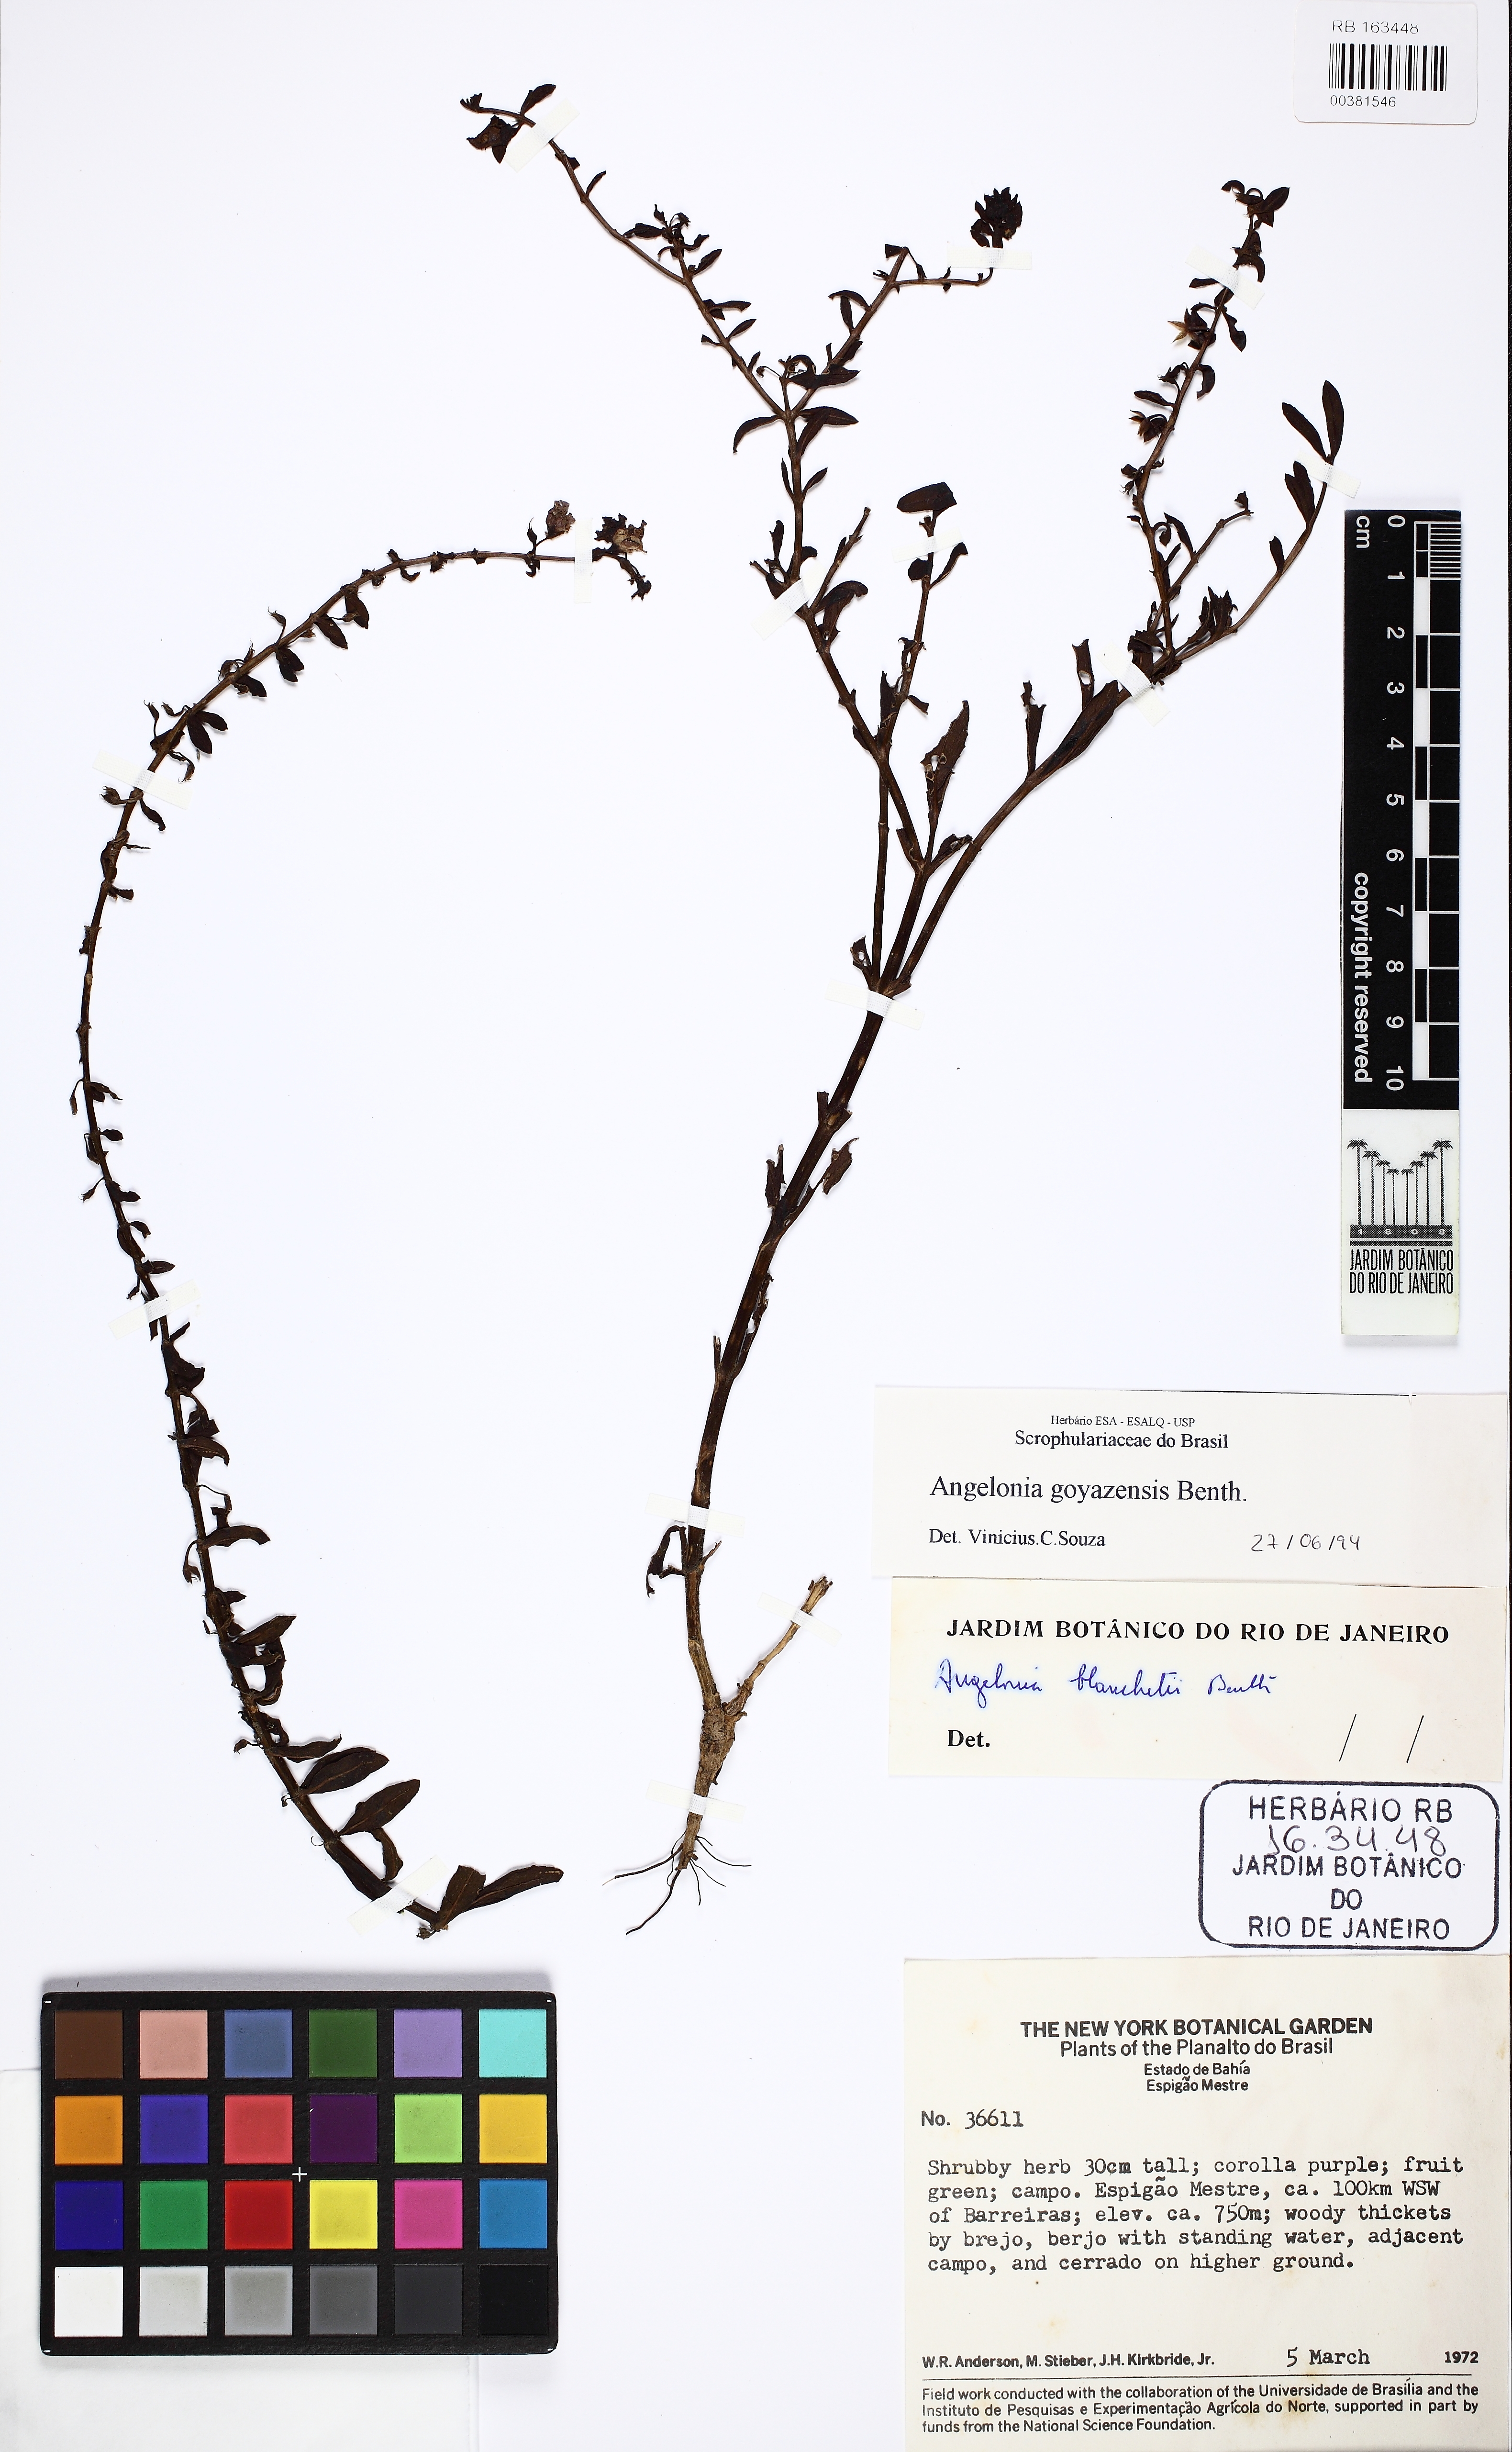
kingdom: Plantae
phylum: Tracheophyta
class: Magnoliopsida
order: Lamiales
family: Plantaginaceae
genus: Angelonia
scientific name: Angelonia goyazensis
